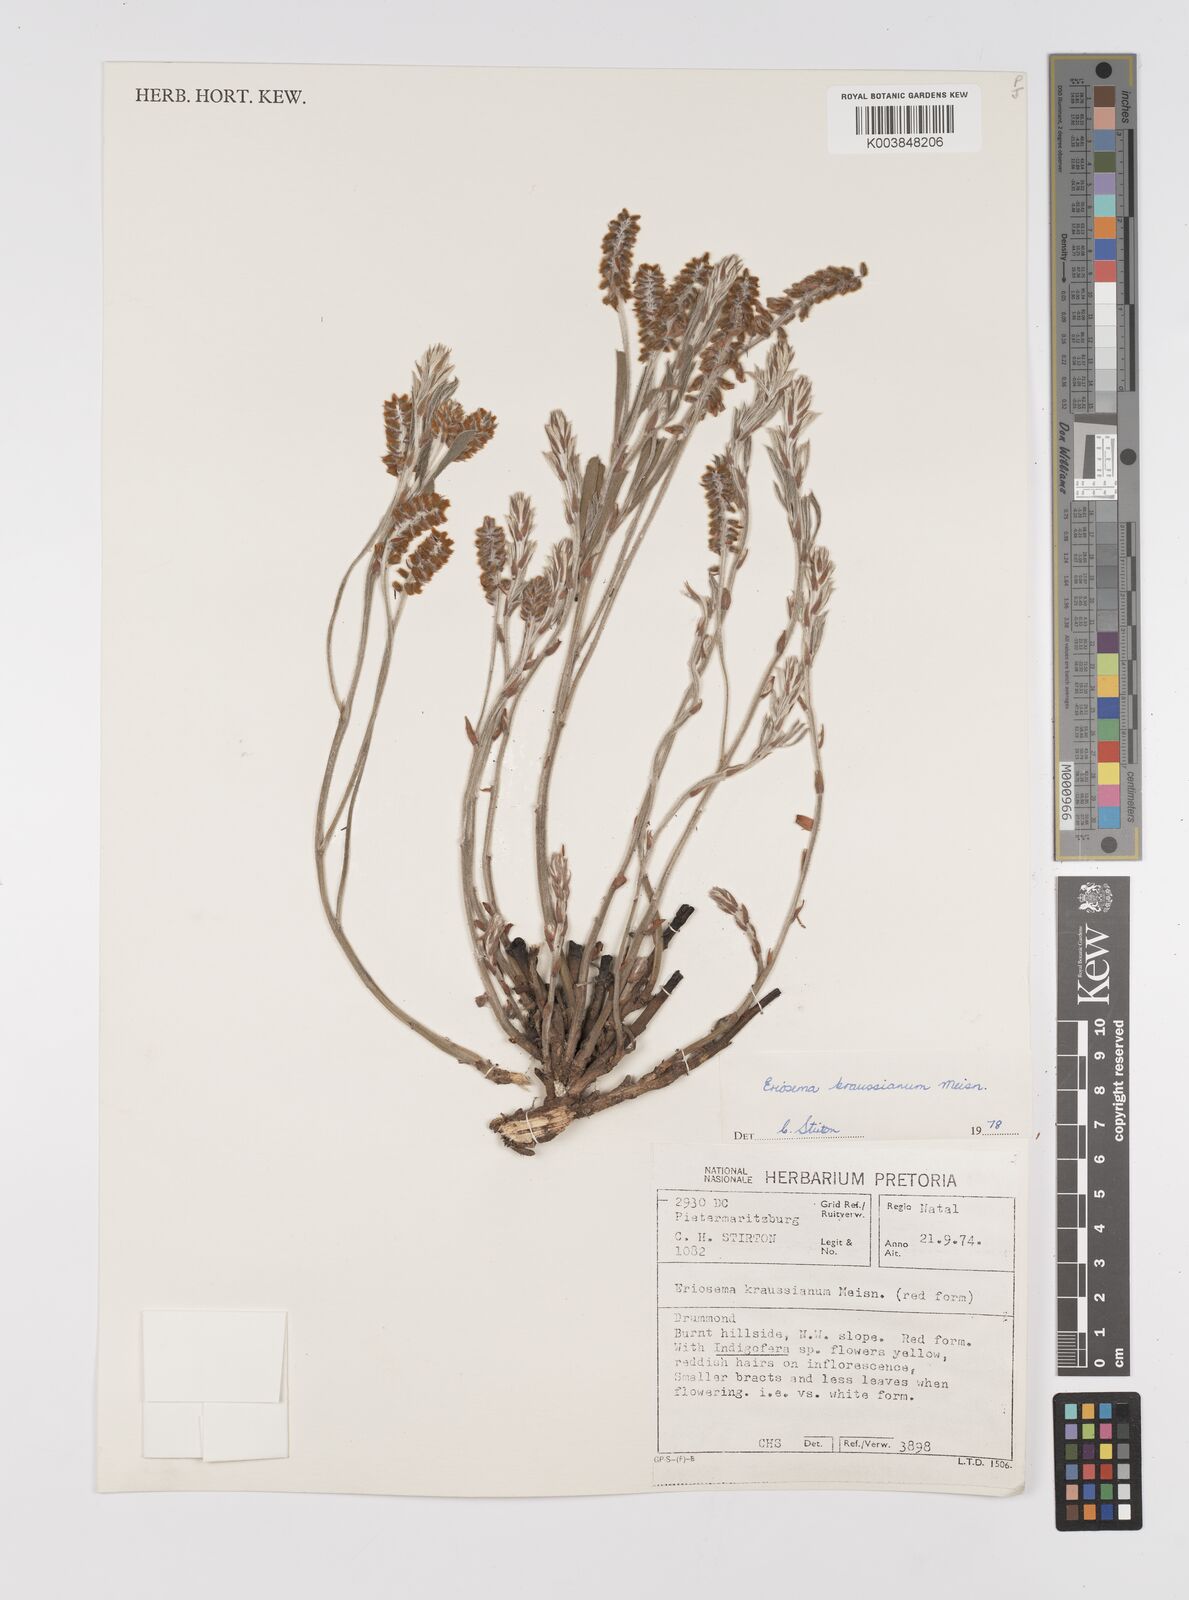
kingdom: Plantae
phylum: Tracheophyta
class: Magnoliopsida
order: Fabales
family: Fabaceae
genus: Eriosema
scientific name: Eriosema kraussianum
